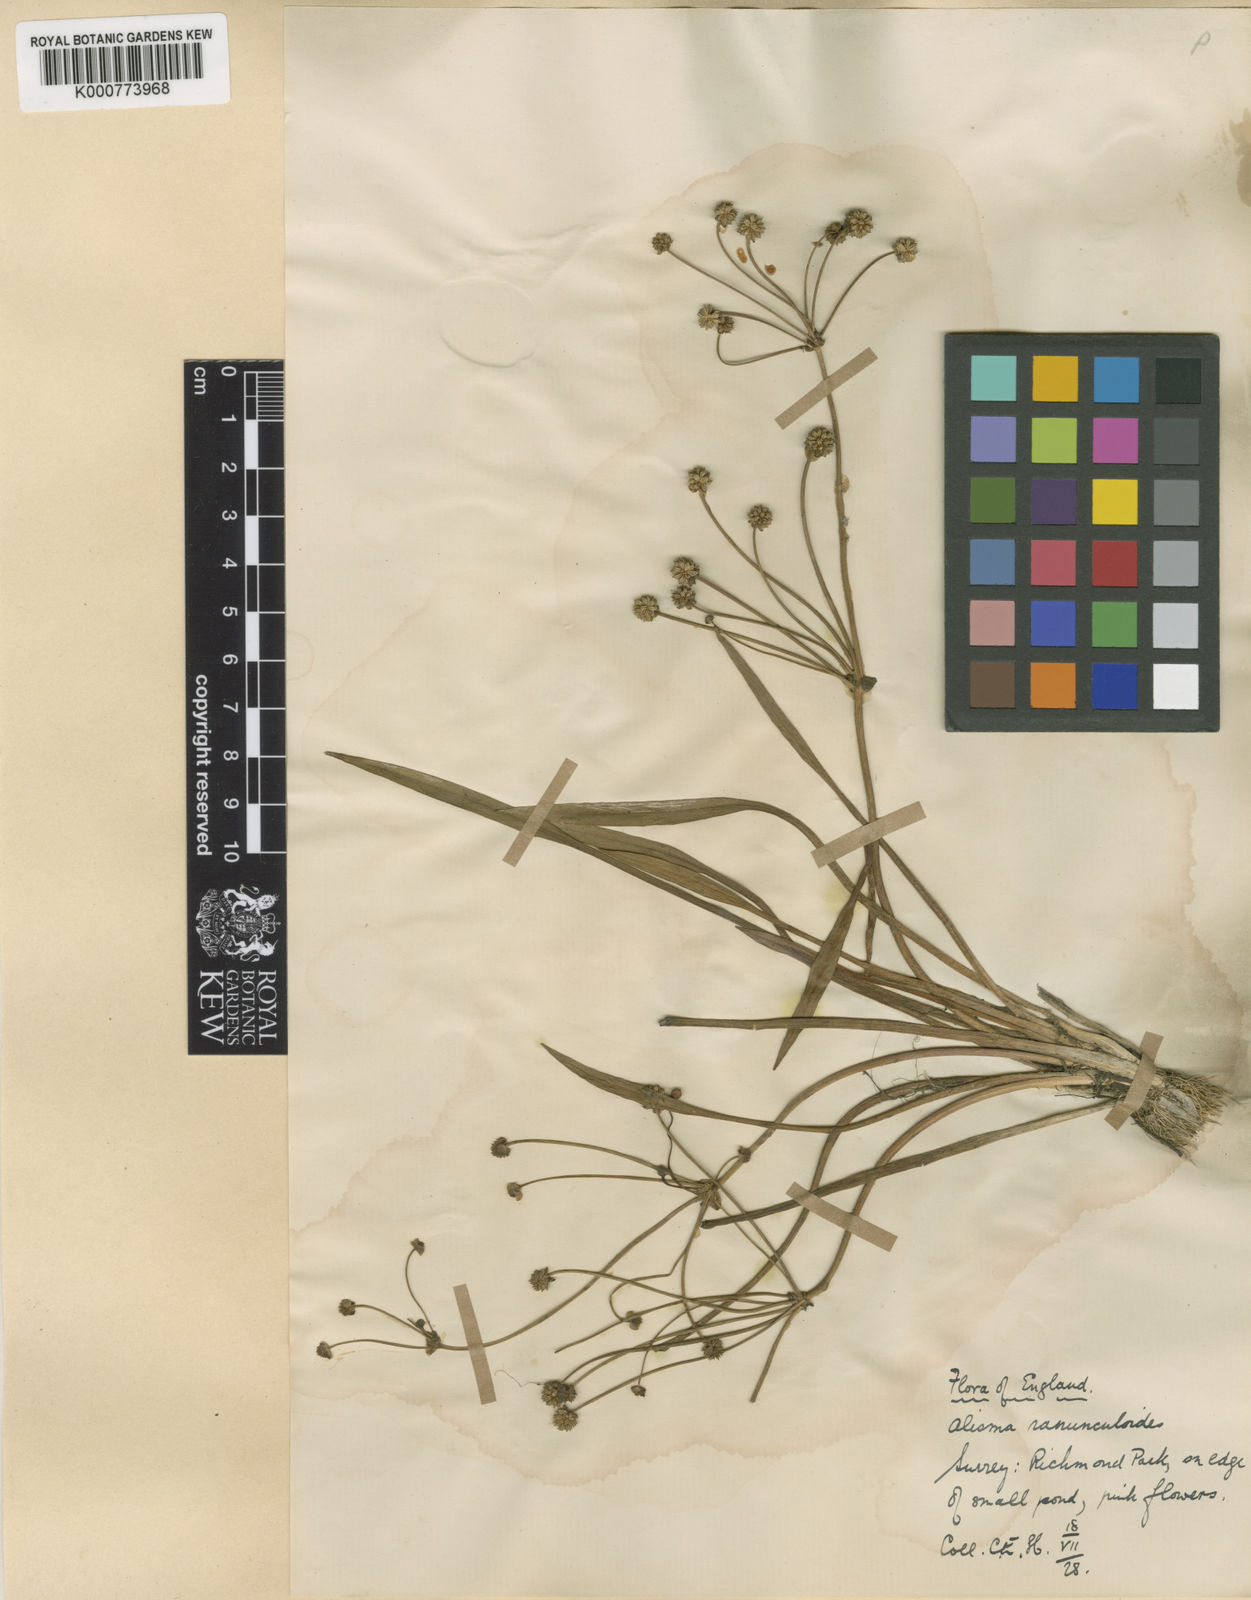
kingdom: Plantae
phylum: Tracheophyta
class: Liliopsida
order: Alismatales
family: Alismataceae
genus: Baldellia
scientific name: Baldellia ranunculoides
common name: Lesser water-plantain
